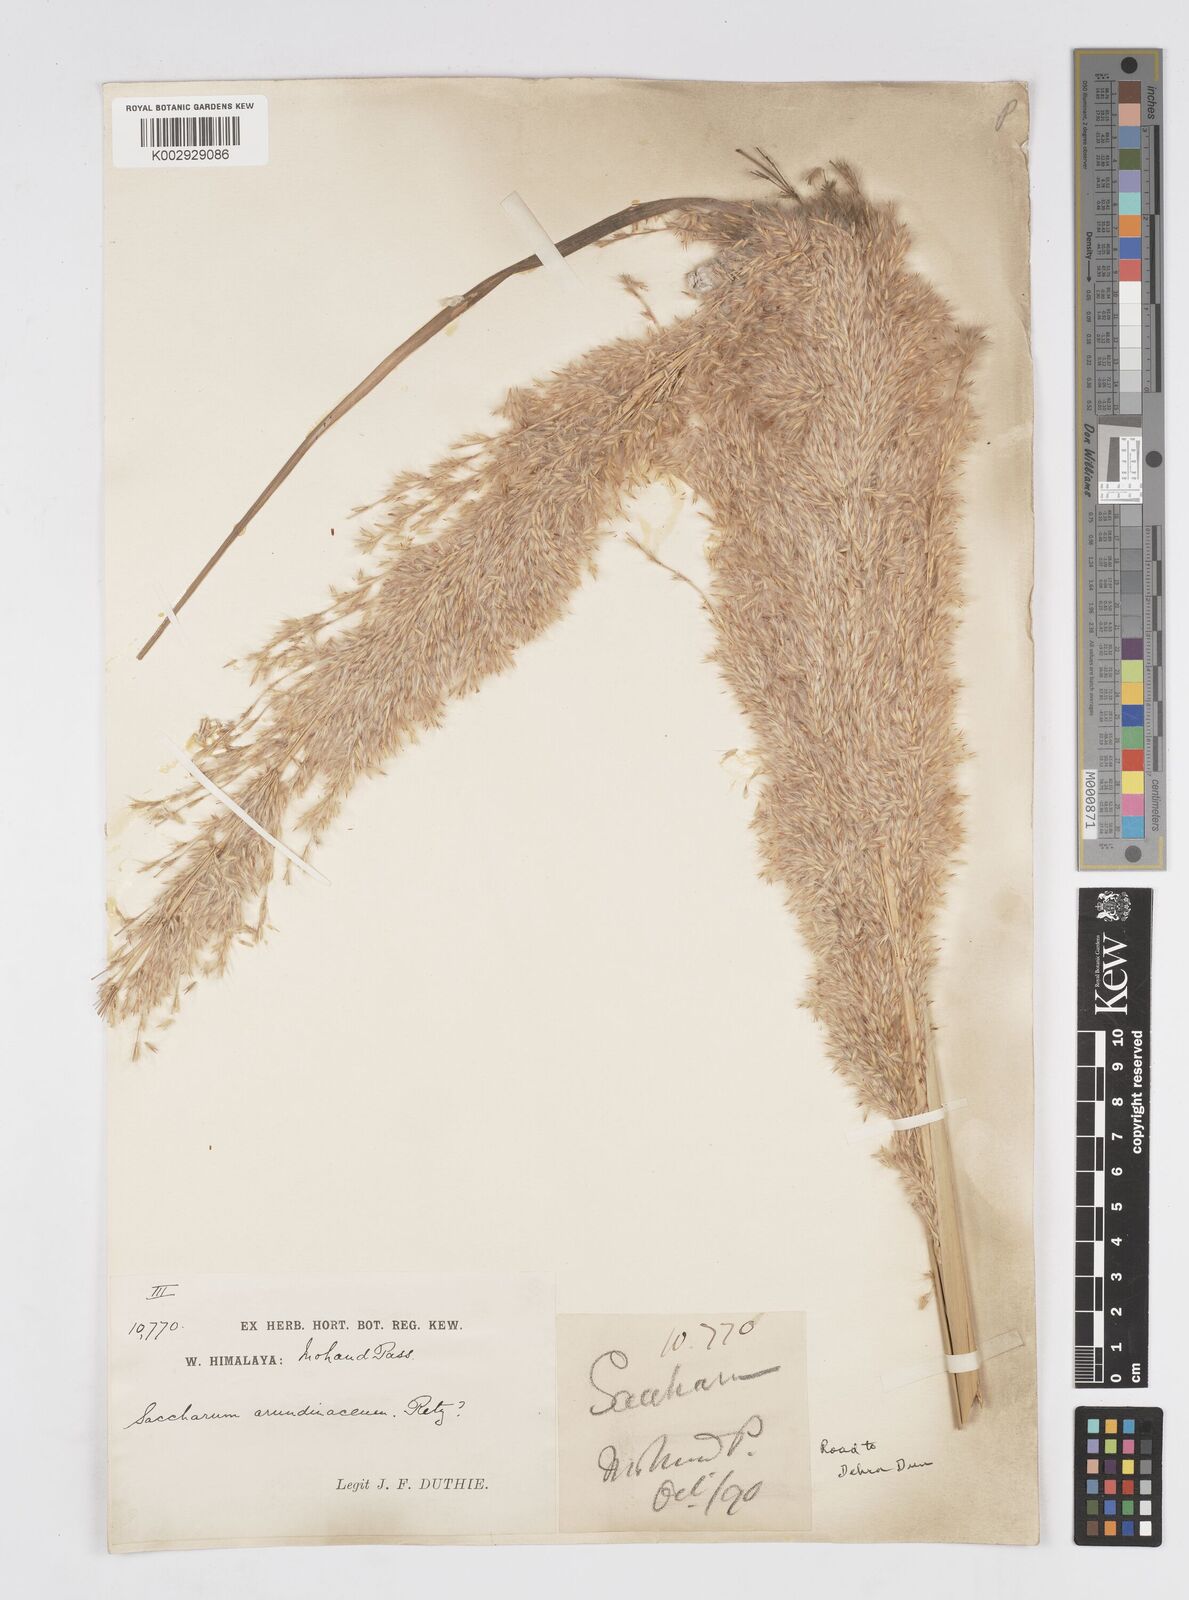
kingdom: Plantae
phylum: Tracheophyta
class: Liliopsida
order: Poales
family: Poaceae
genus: Tripidium
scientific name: Tripidium bengalense
